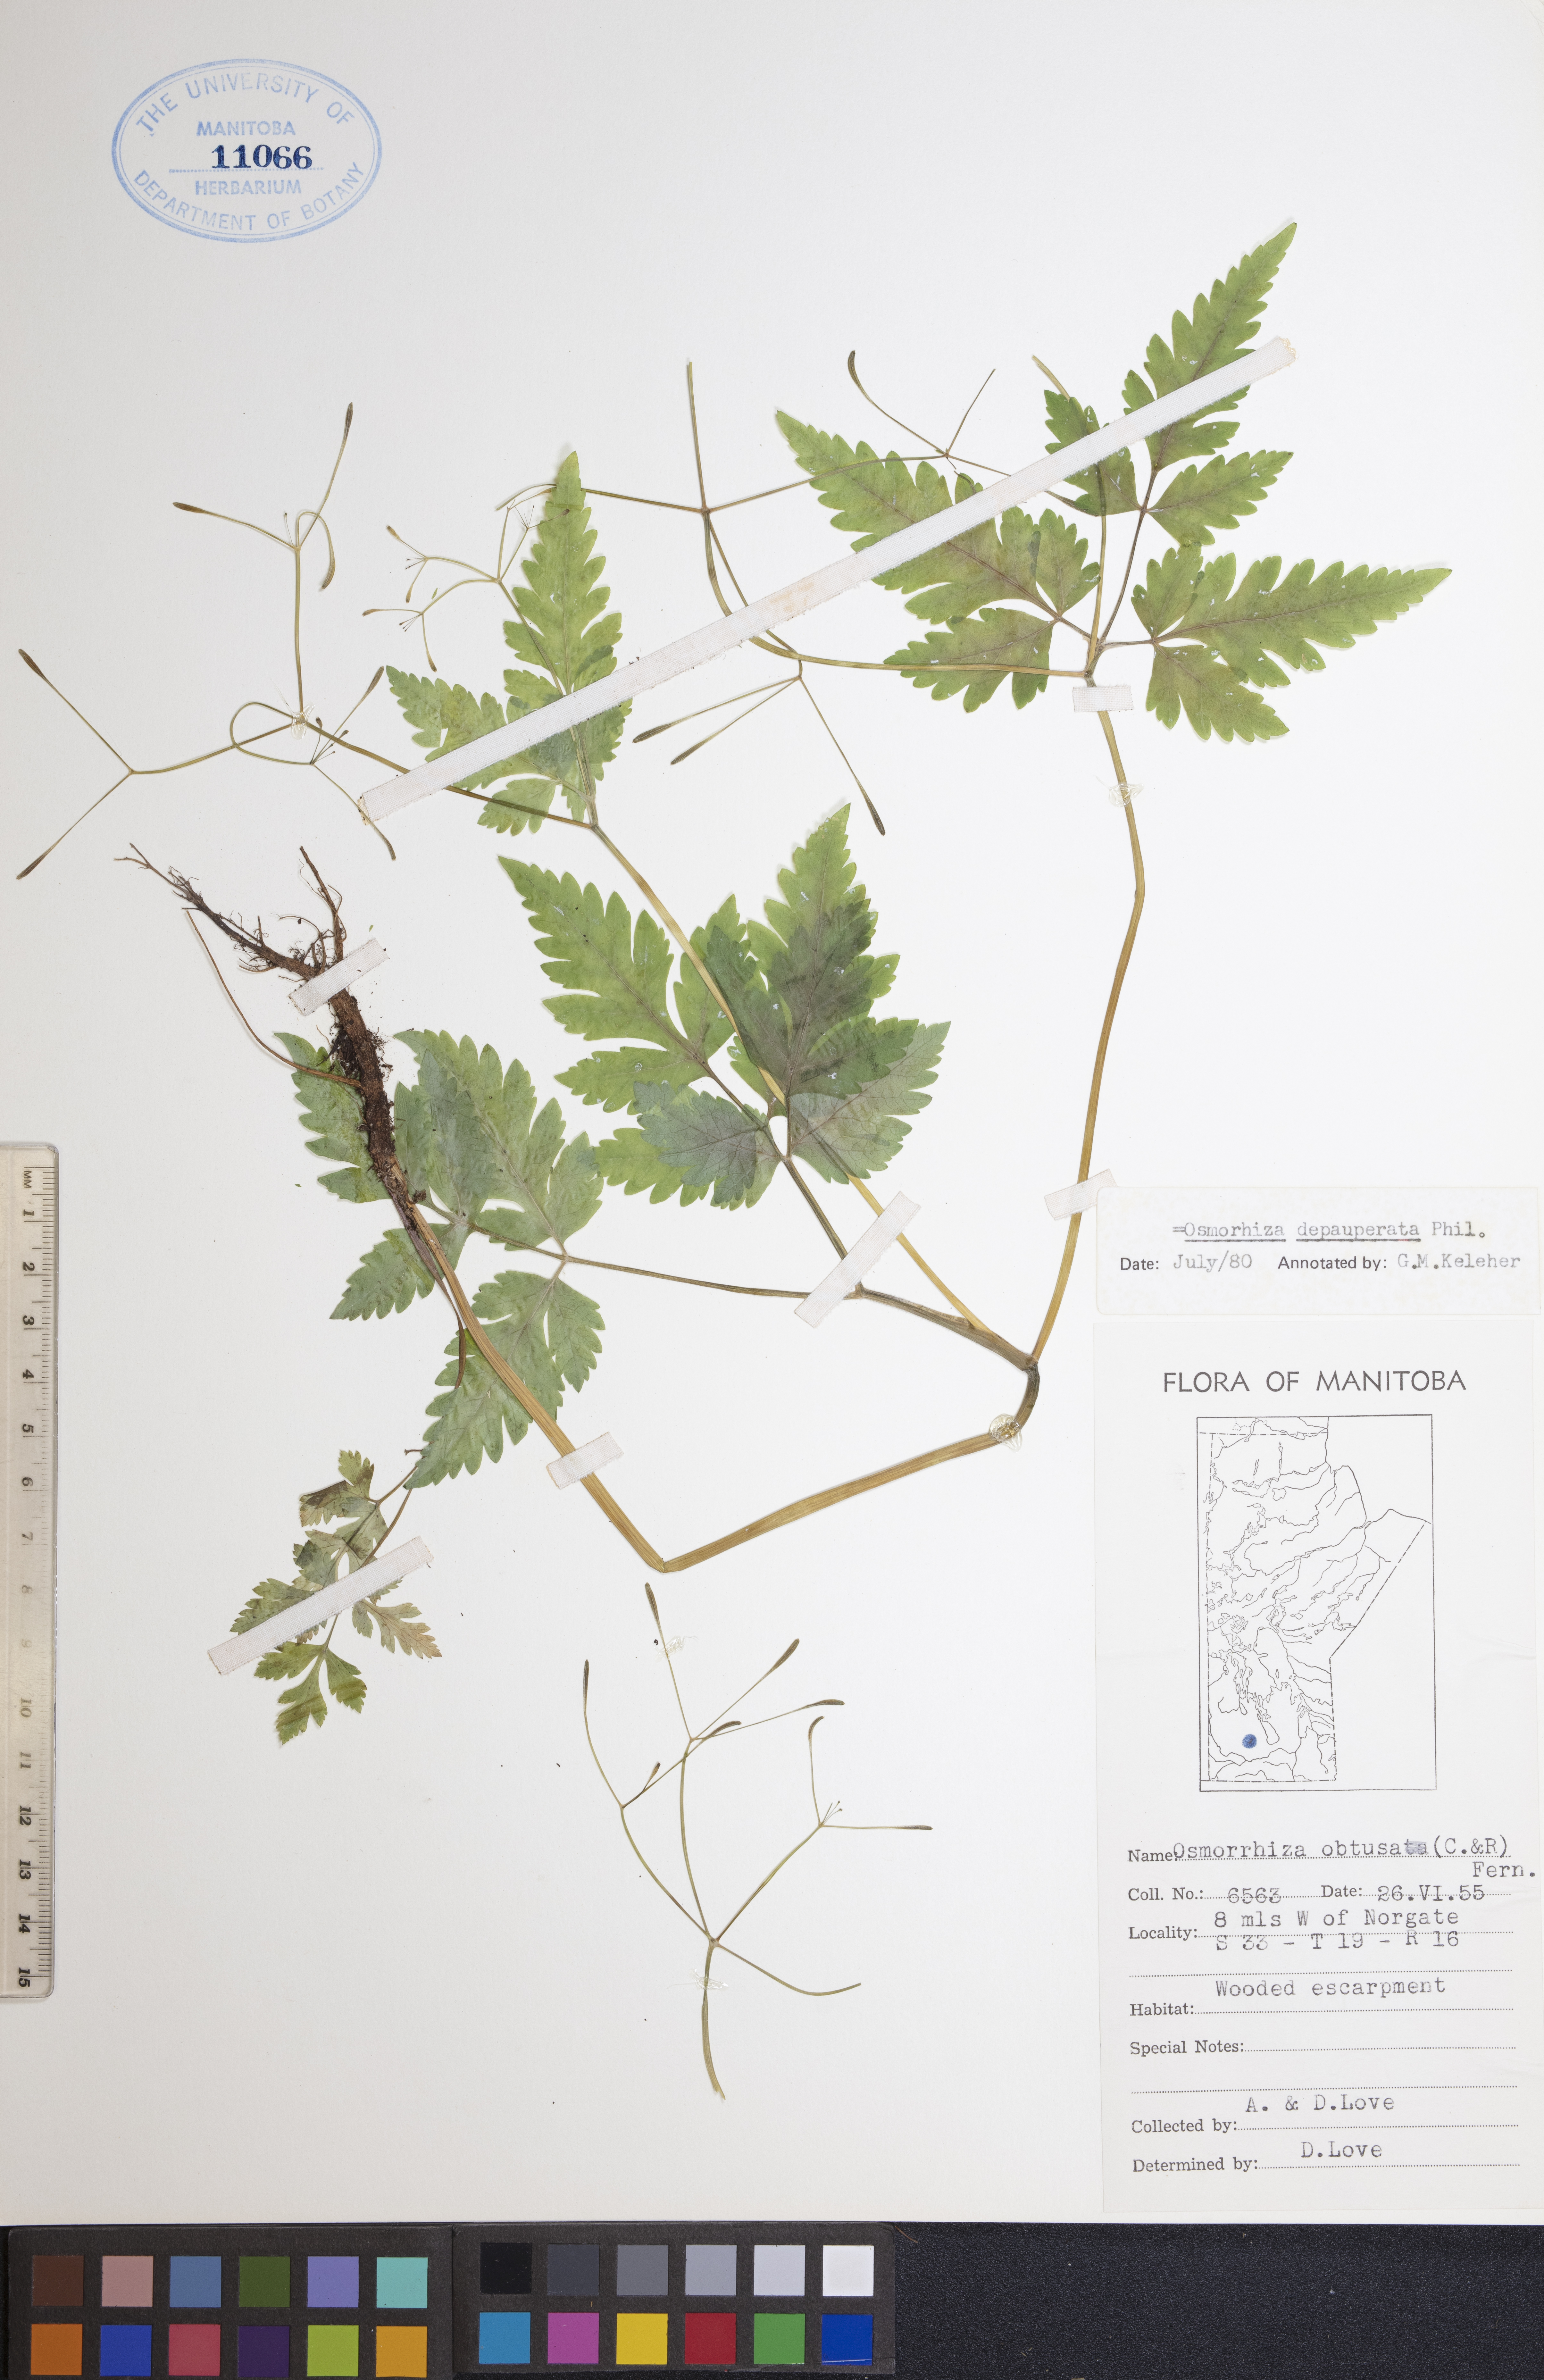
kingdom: Plantae
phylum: Tracheophyta
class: Magnoliopsida
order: Apiales
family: Apiaceae
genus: Osmorhiza
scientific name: Osmorhiza depauperata
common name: Blunt sweet cicely
